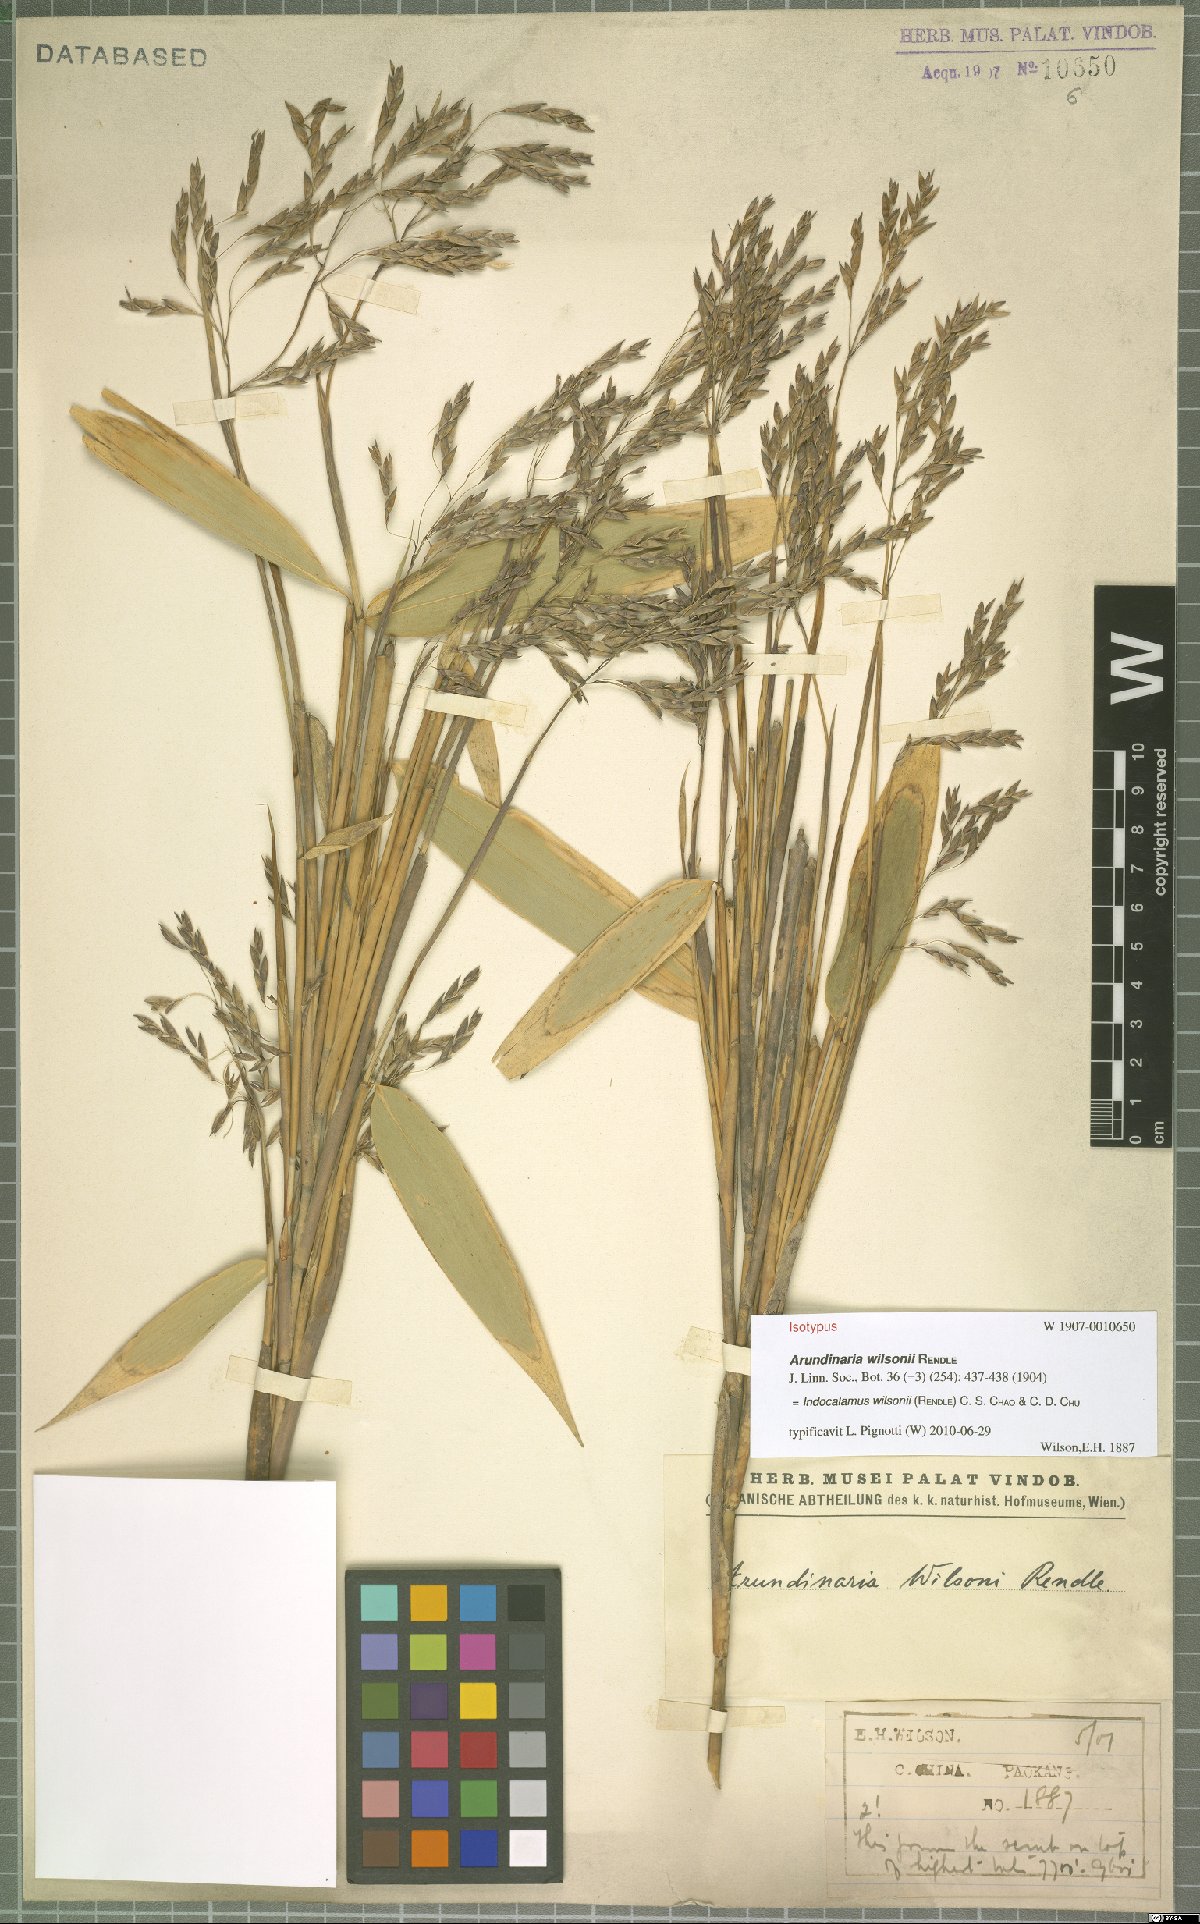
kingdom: Plantae
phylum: Tracheophyta
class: Liliopsida
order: Poales
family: Poaceae
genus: Ravenochloa
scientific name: Ravenochloa wilsonii
